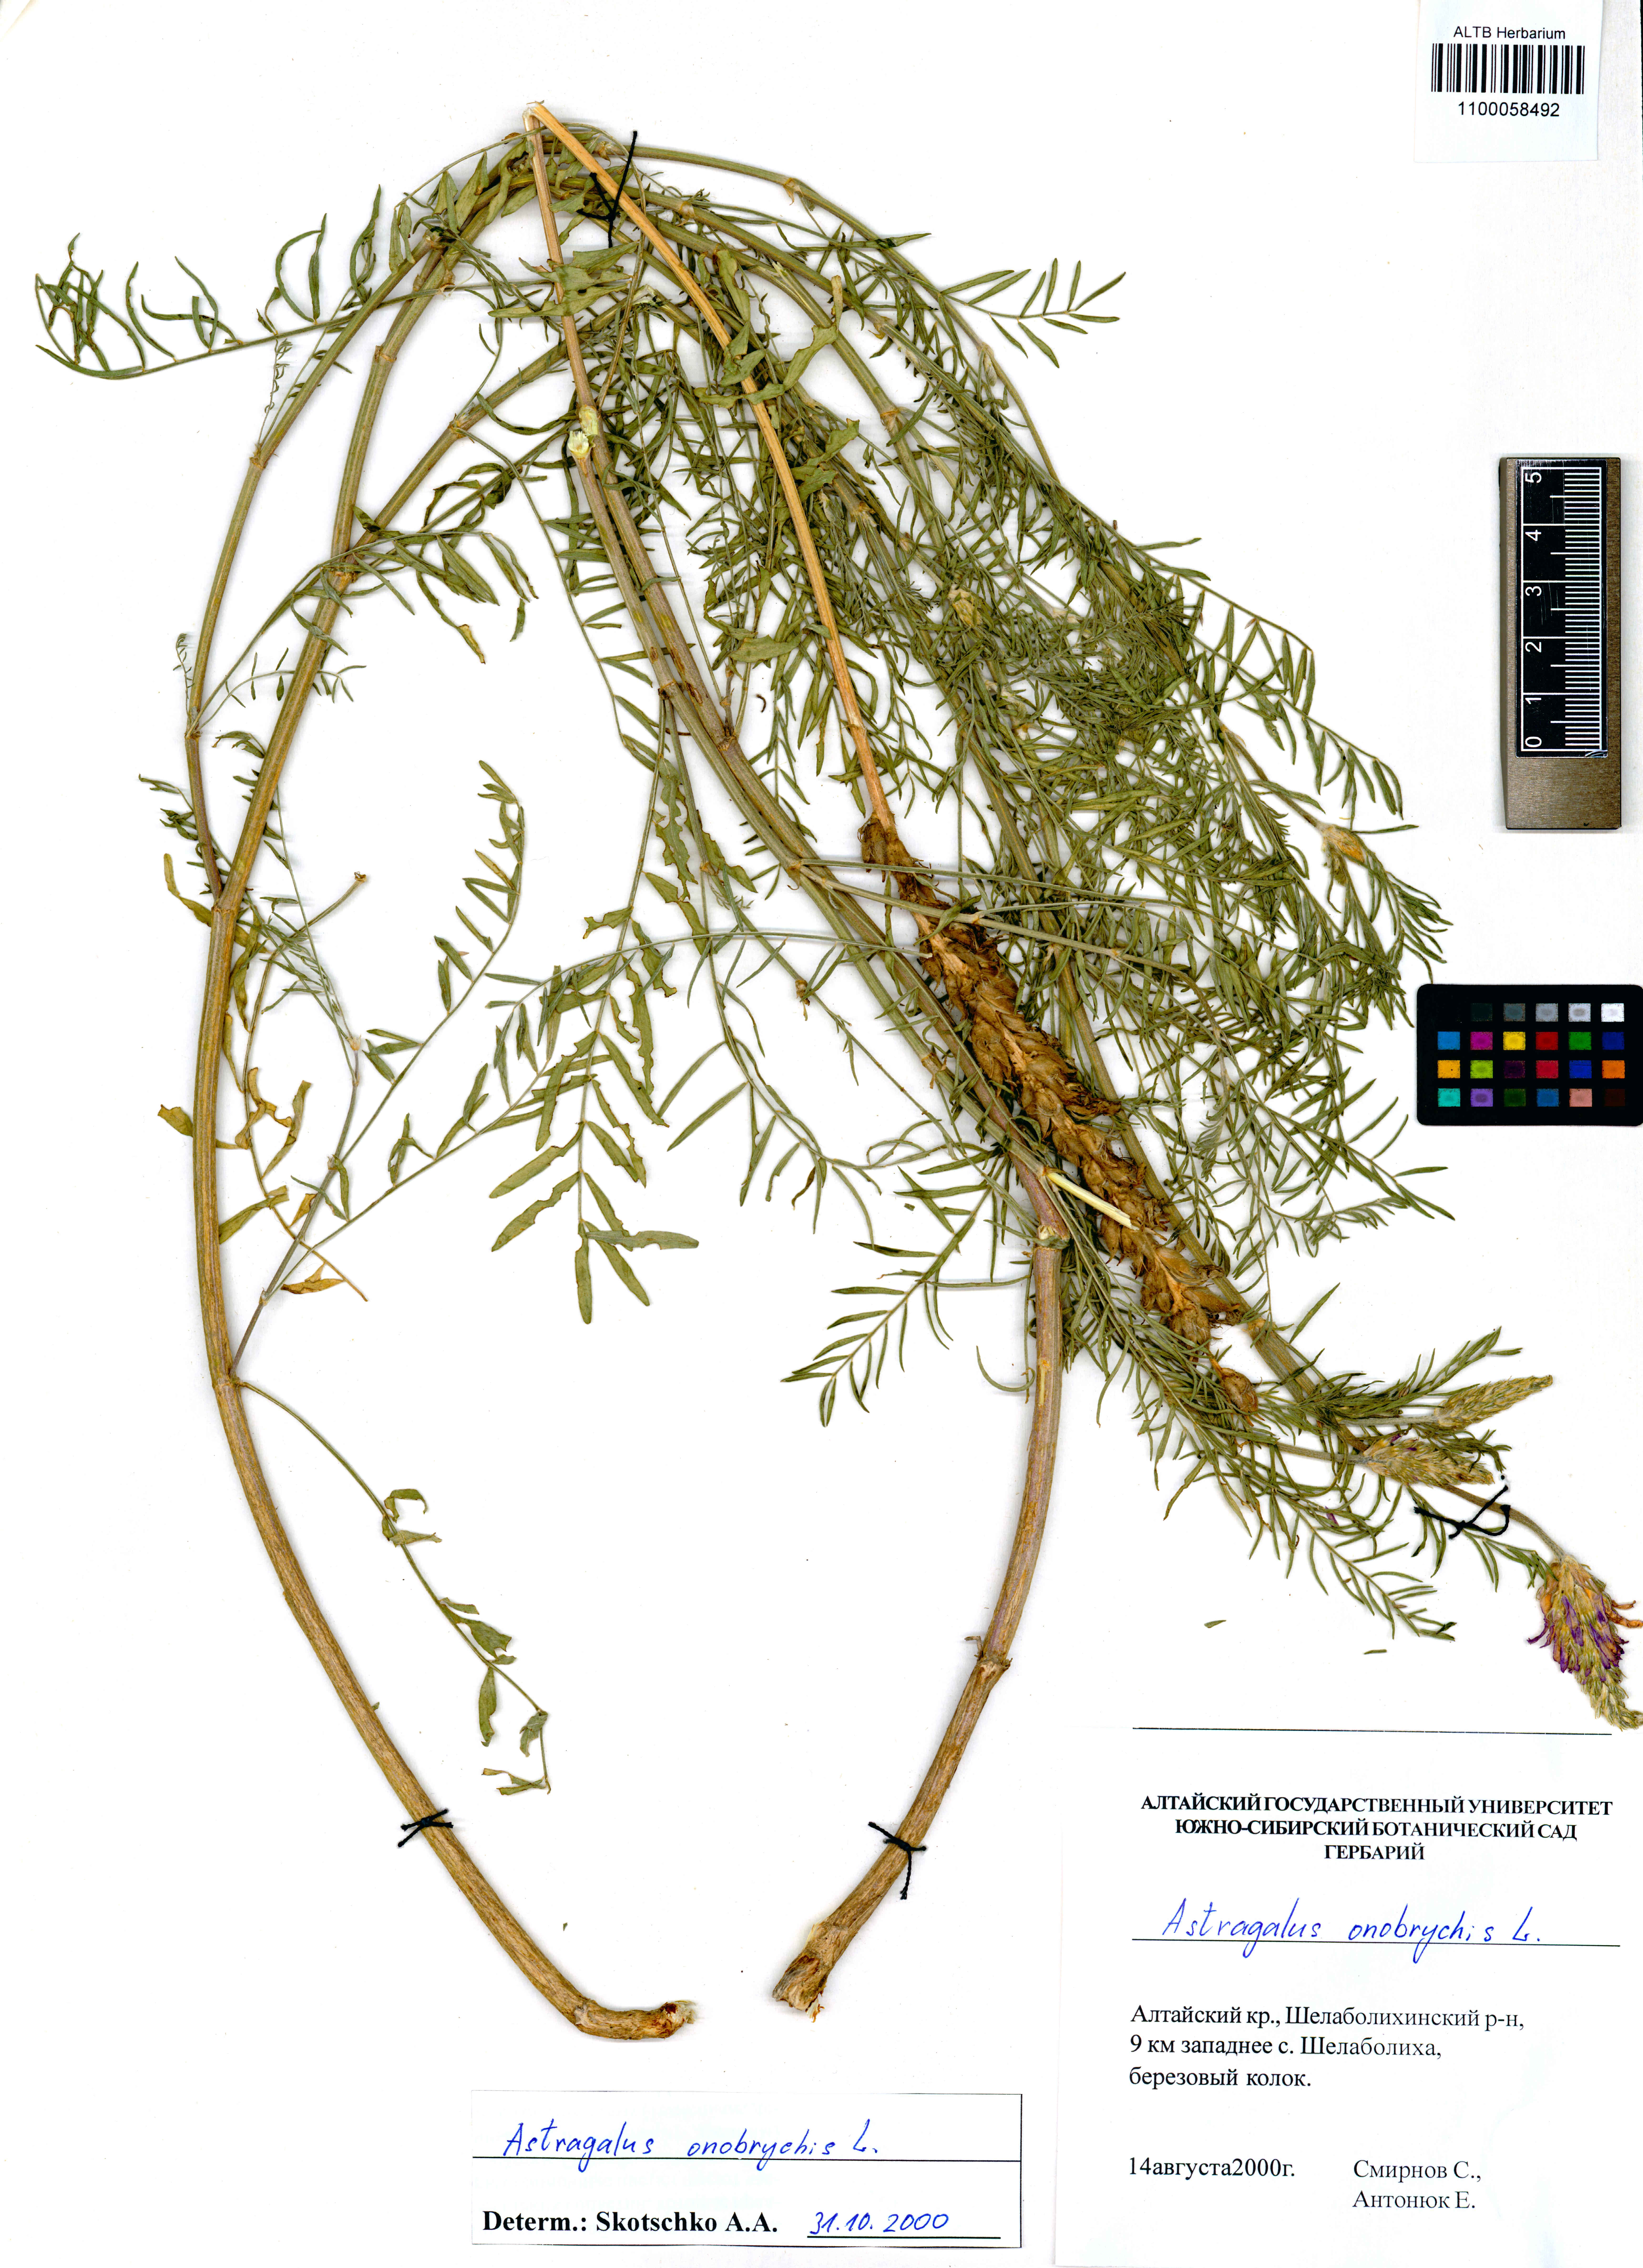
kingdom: Plantae
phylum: Tracheophyta
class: Magnoliopsida
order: Fabales
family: Fabaceae
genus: Astragalus
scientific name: Astragalus onobrychis
